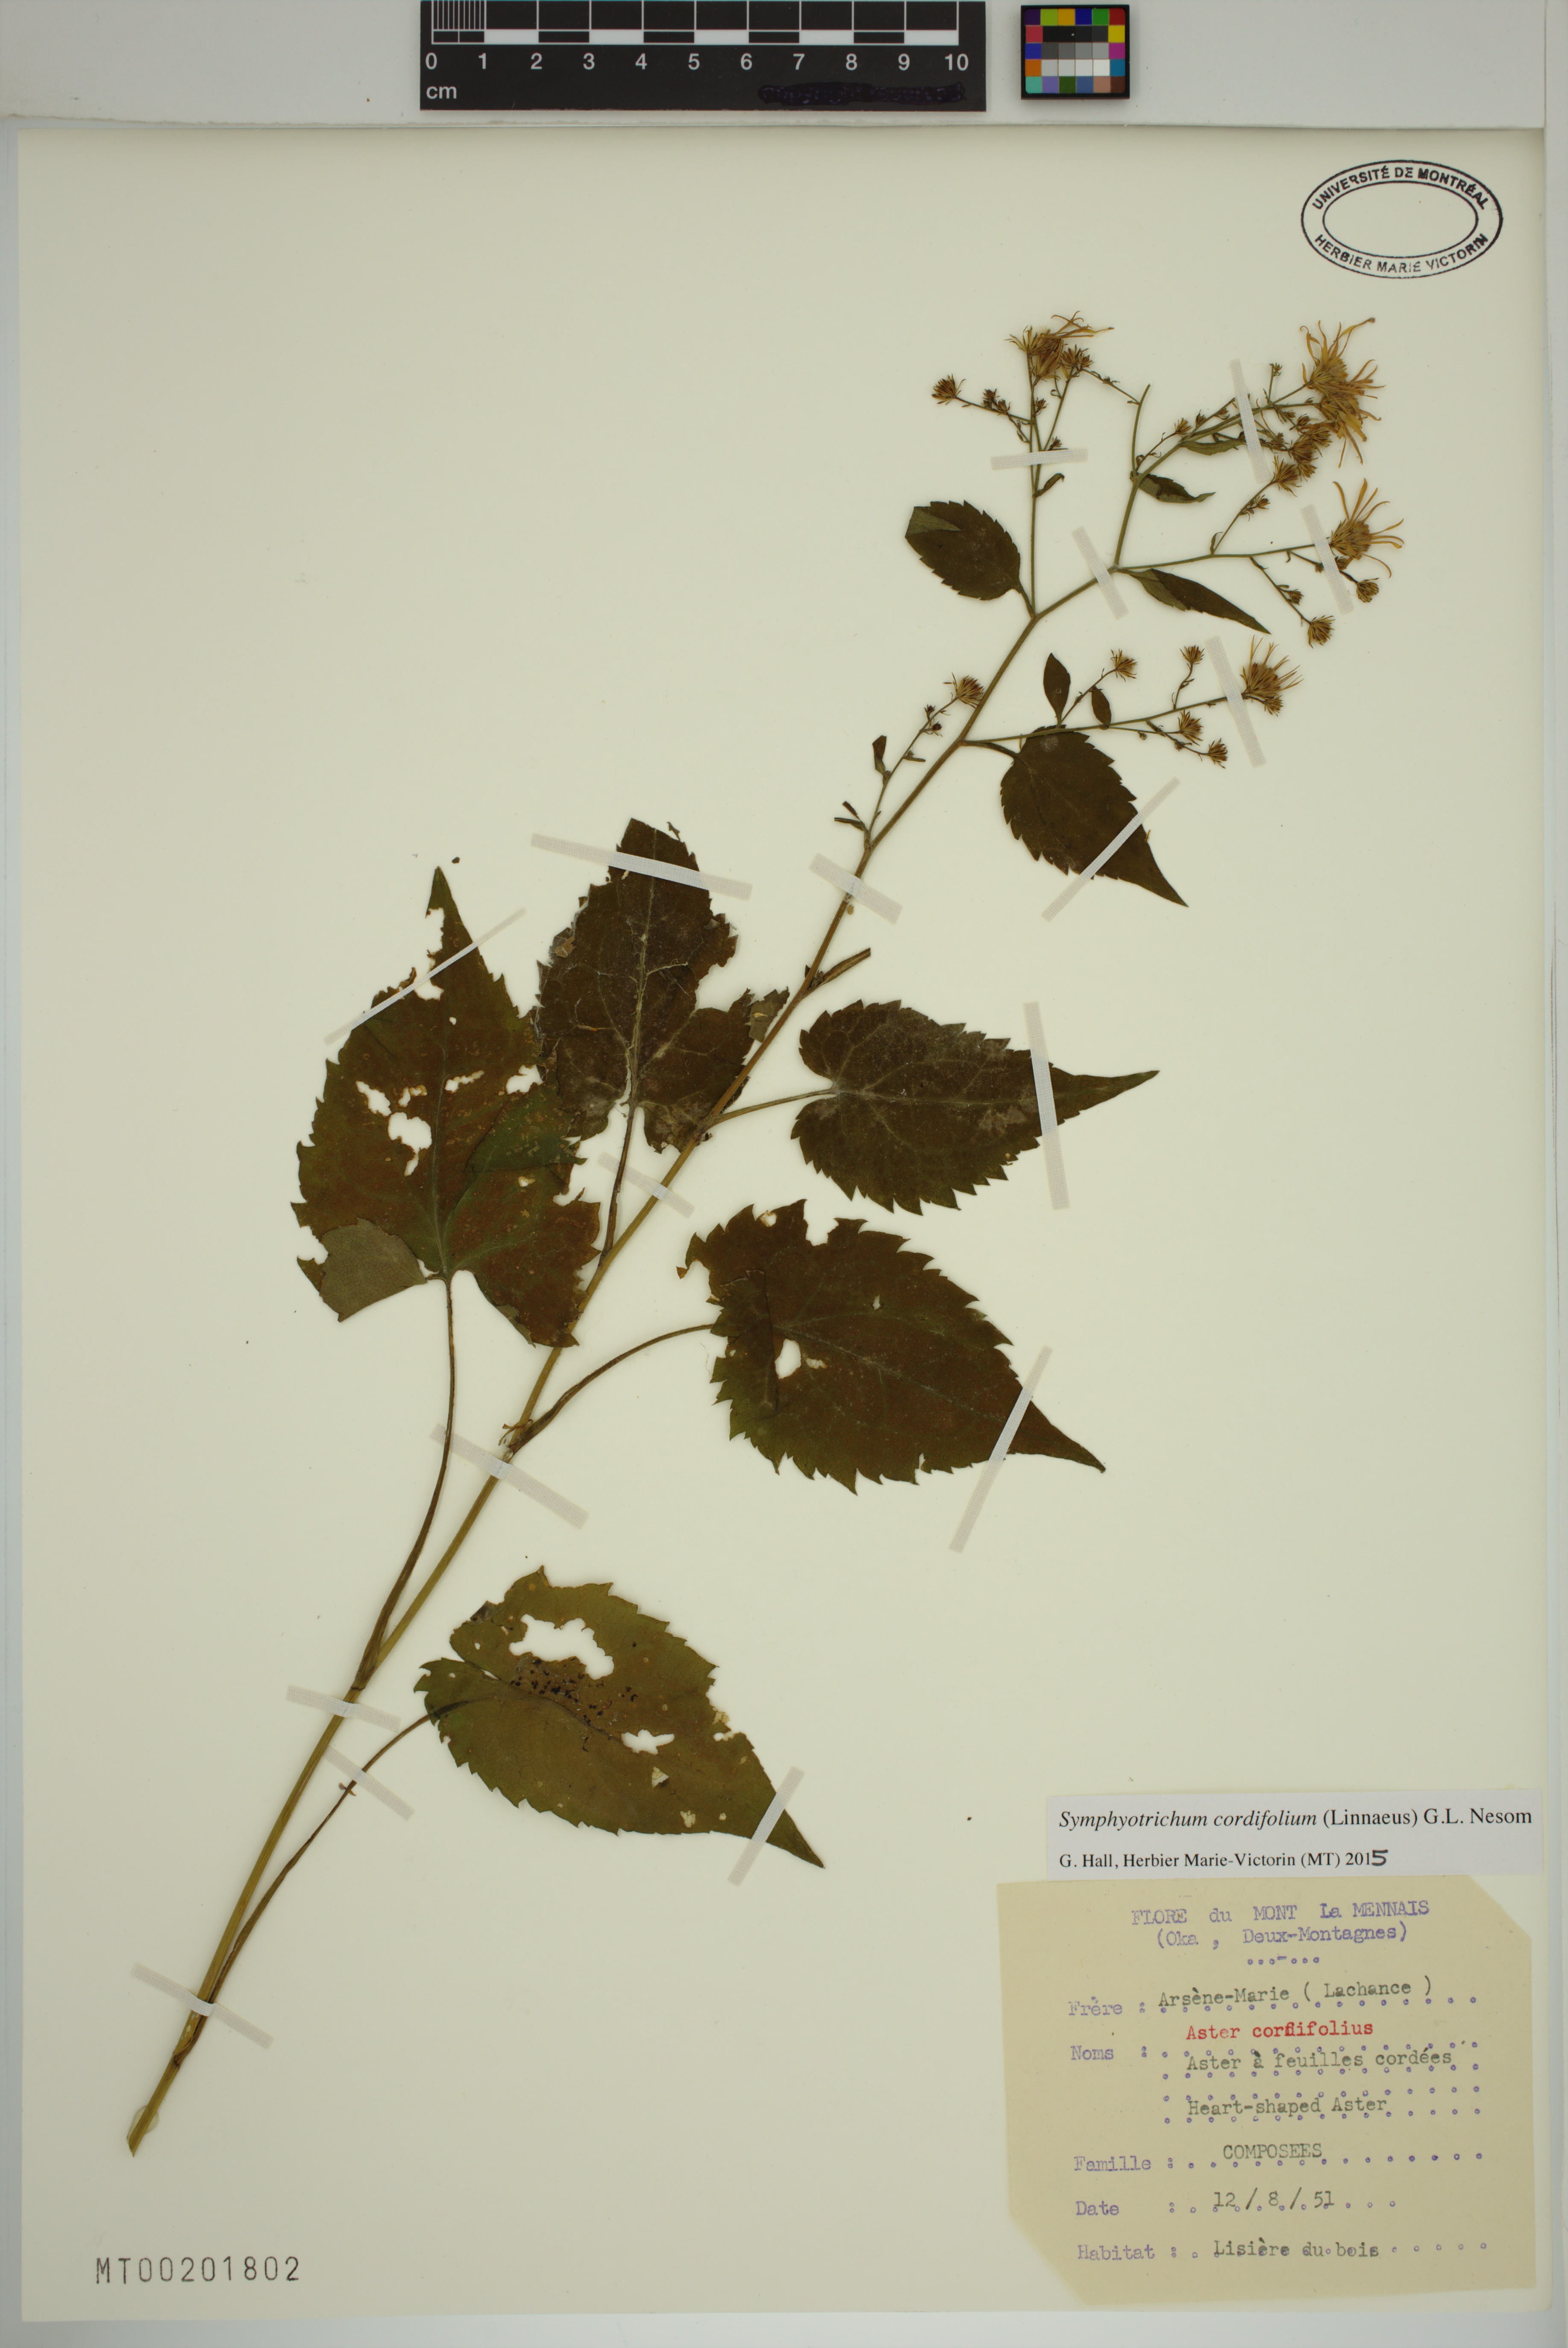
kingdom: Plantae
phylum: Tracheophyta
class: Magnoliopsida
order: Asterales
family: Asteraceae
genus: Symphyotrichum
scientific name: Symphyotrichum cordifolium
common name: Beeweed
